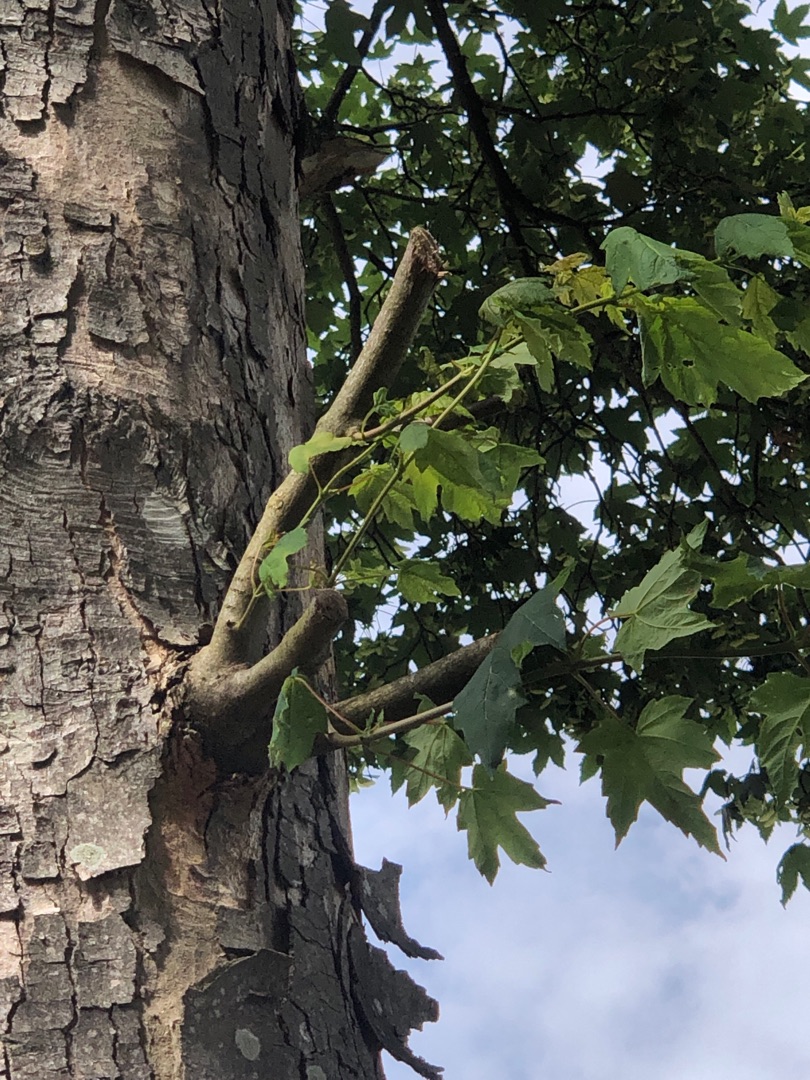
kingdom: Plantae
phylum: Tracheophyta
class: Magnoliopsida
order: Sapindales
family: Sapindaceae
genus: Acer
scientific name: Acer platanoides
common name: Spids-løn
